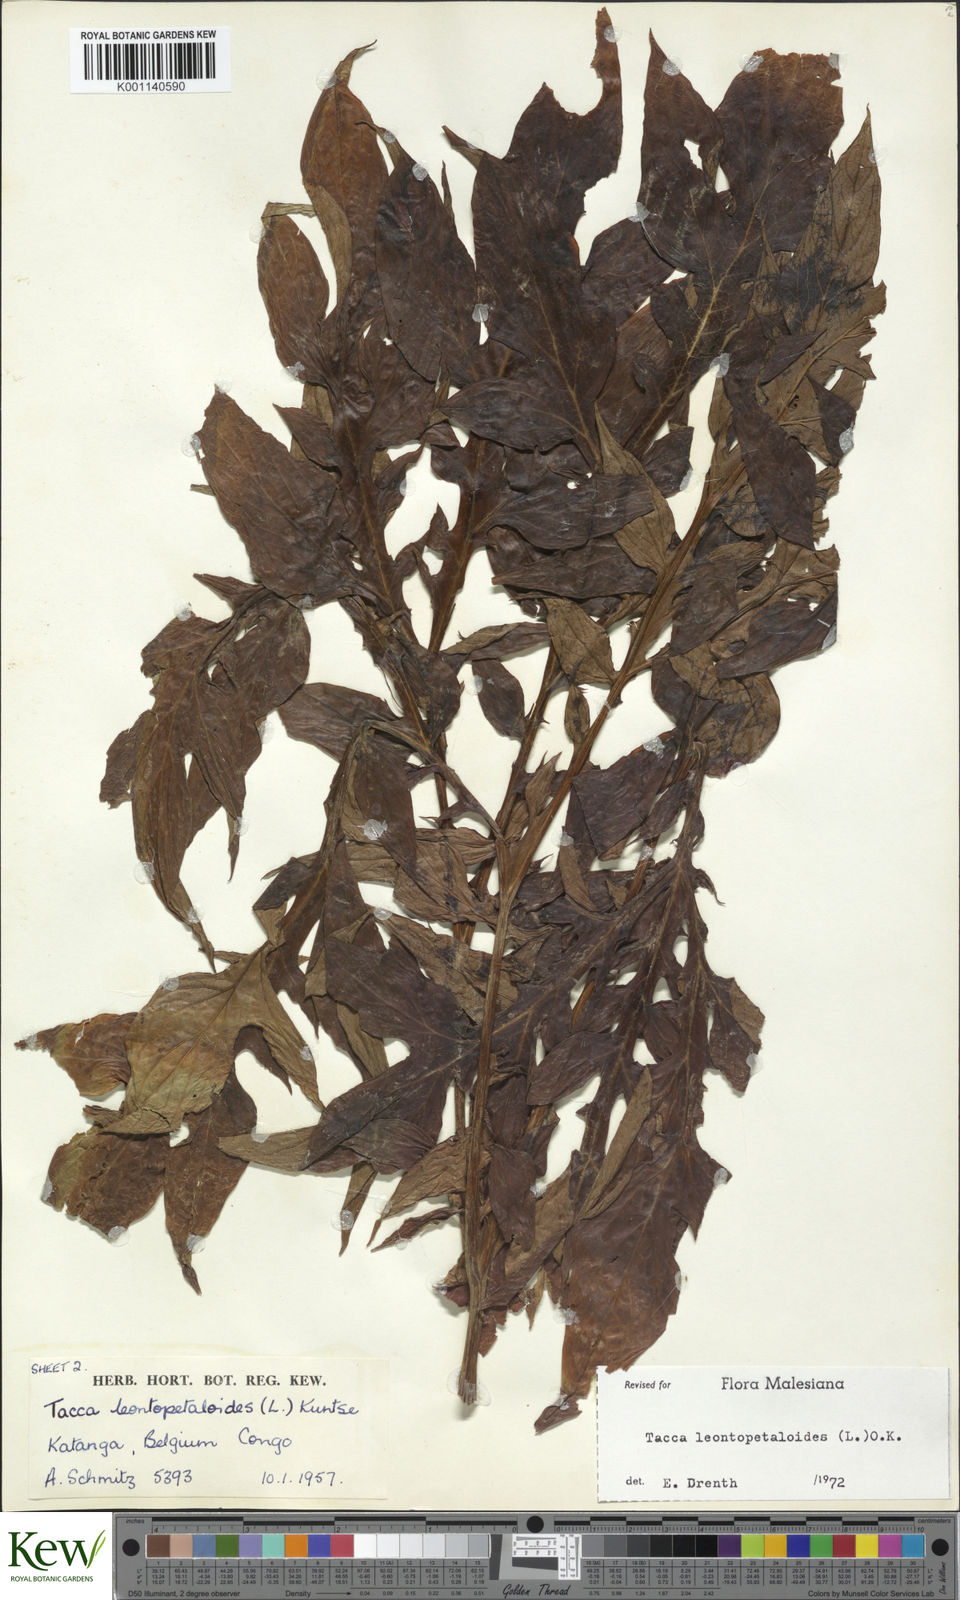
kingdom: Plantae
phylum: Tracheophyta
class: Liliopsida
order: Dioscoreales
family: Dioscoreaceae
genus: Tacca
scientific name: Tacca leontopetaloides
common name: Arrowroot
